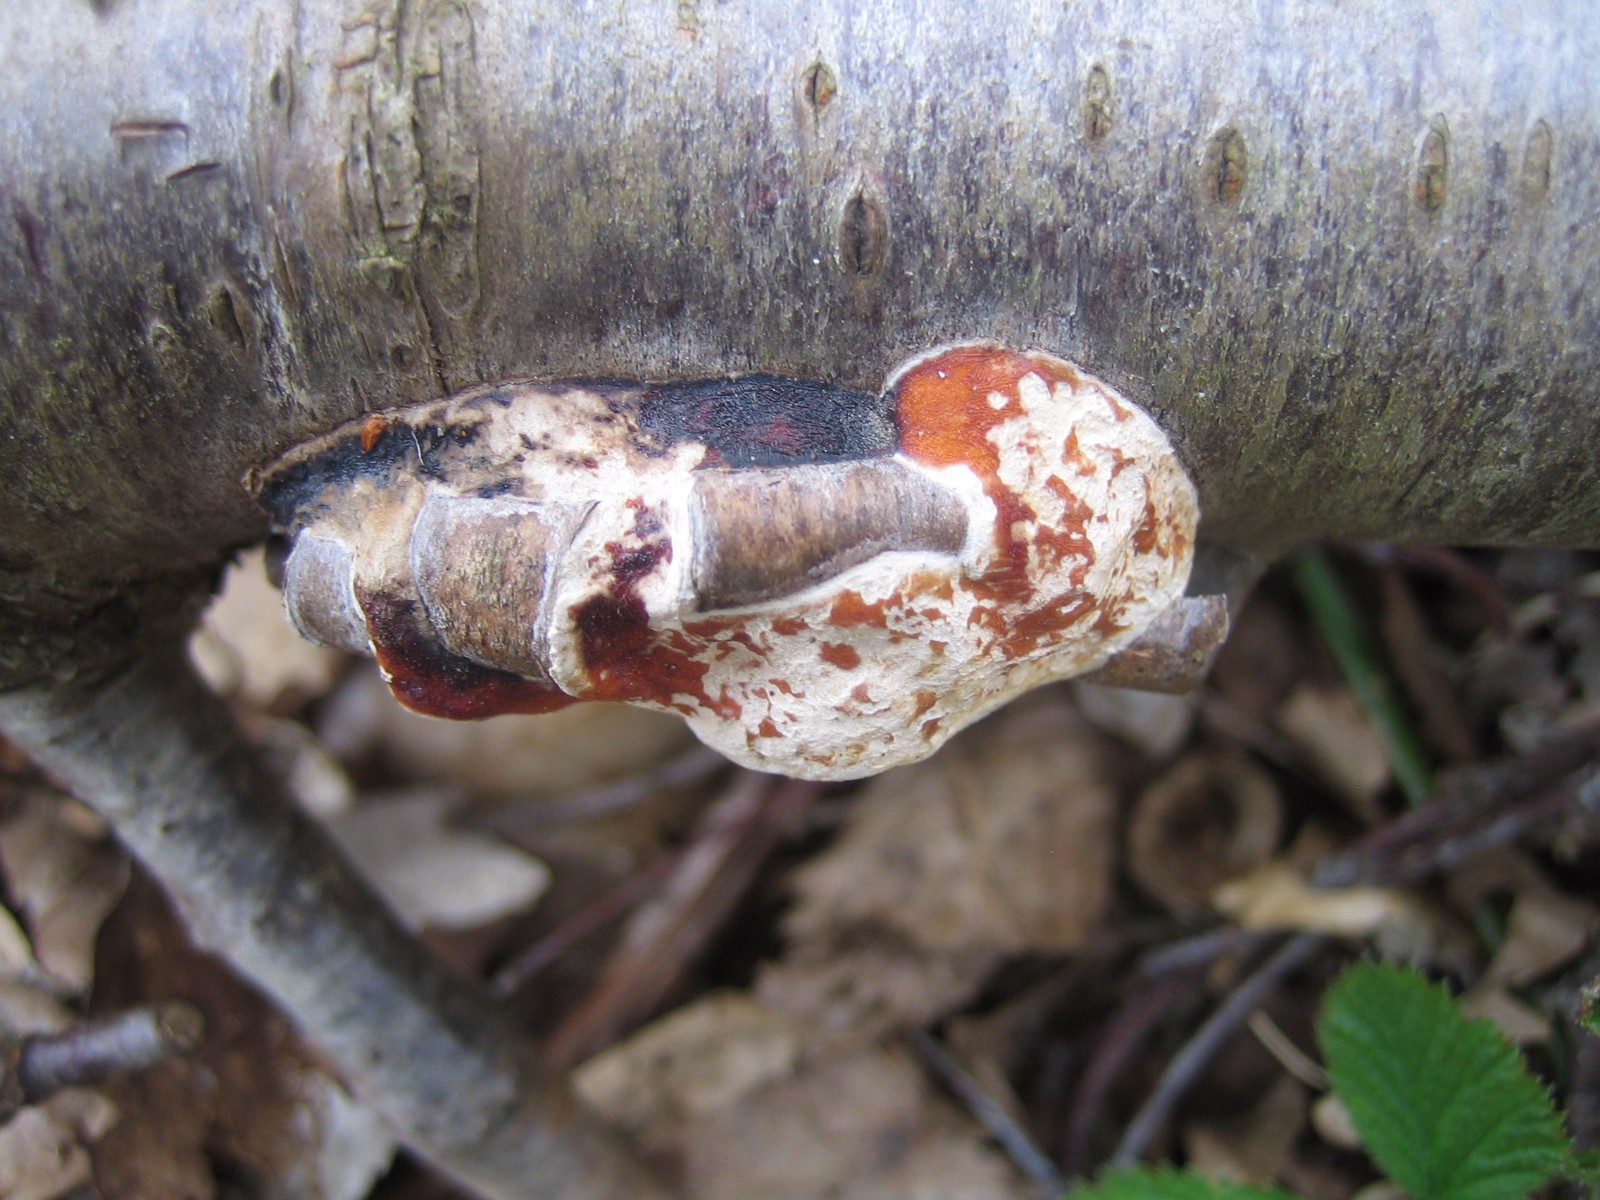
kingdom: Fungi
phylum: Basidiomycota
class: Agaricomycetes
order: Polyporales
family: Fomitopsidaceae
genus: Fomitopsis
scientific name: Fomitopsis pinicola
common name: randbæltet hovporesvamp
